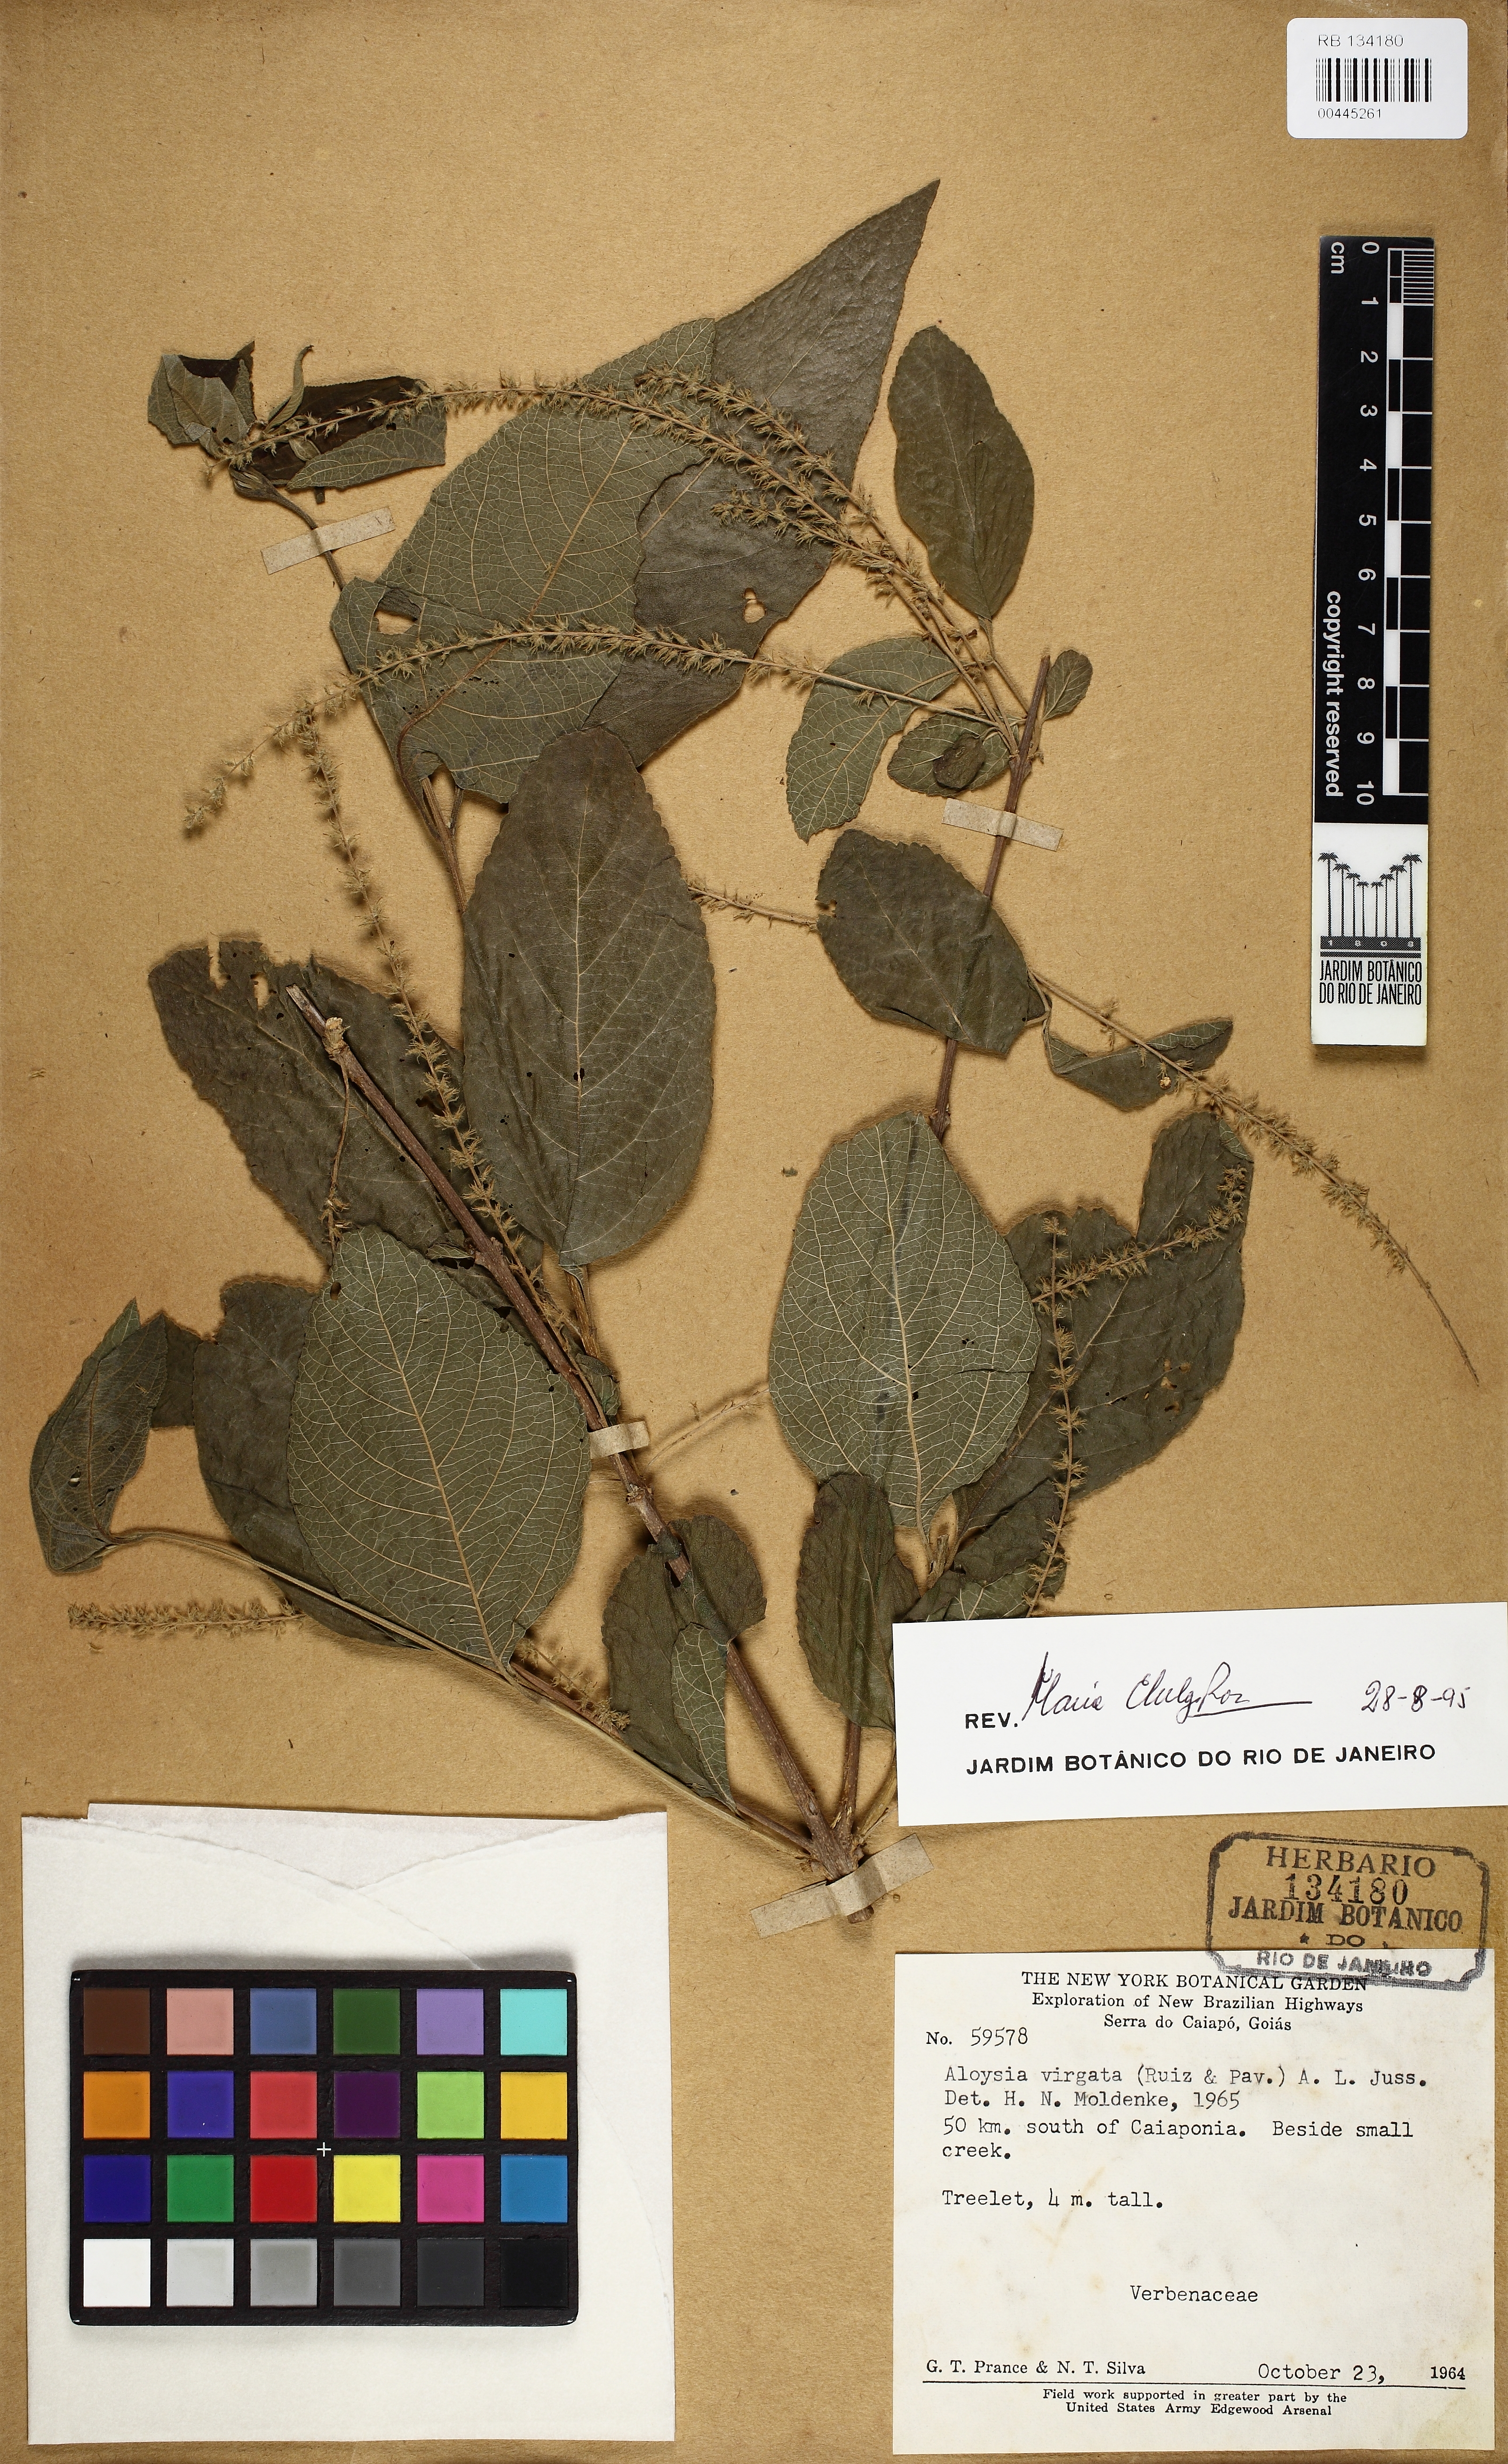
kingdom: Plantae
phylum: Tracheophyta
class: Magnoliopsida
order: Lamiales
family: Verbenaceae
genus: Aloysia
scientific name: Aloysia virgata
